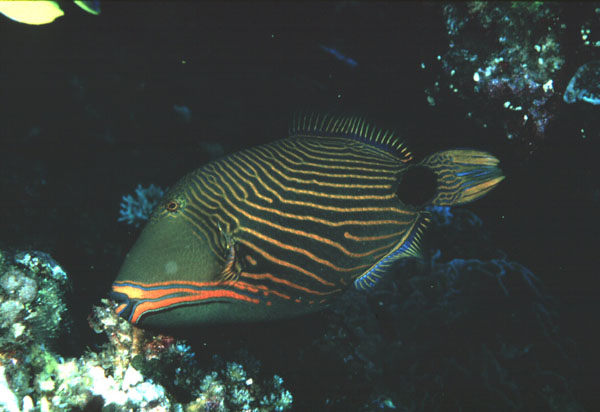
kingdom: Animalia
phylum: Chordata
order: Tetraodontiformes
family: Balistidae
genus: Balistapus
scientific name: Balistapus undulatus
